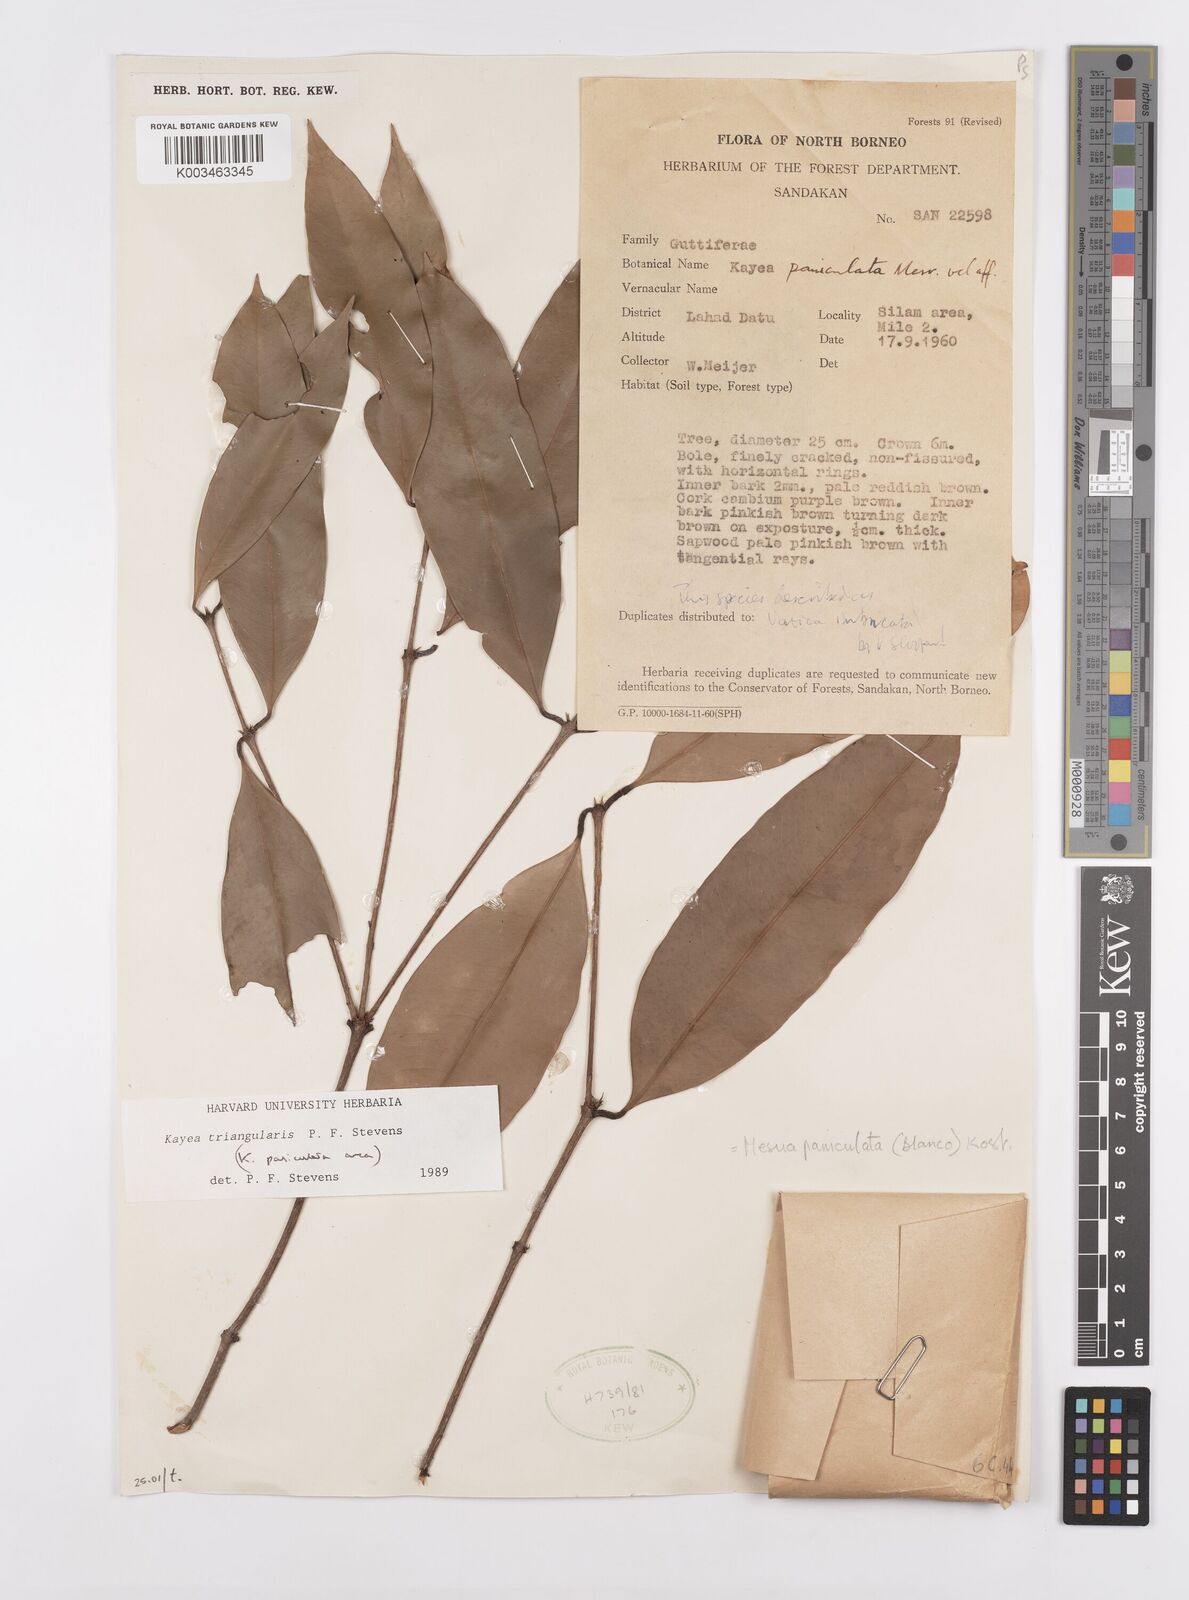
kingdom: Plantae
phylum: Tracheophyta
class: Magnoliopsida
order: Malpighiales
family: Calophyllaceae
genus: Kayea
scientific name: Kayea paniculata
